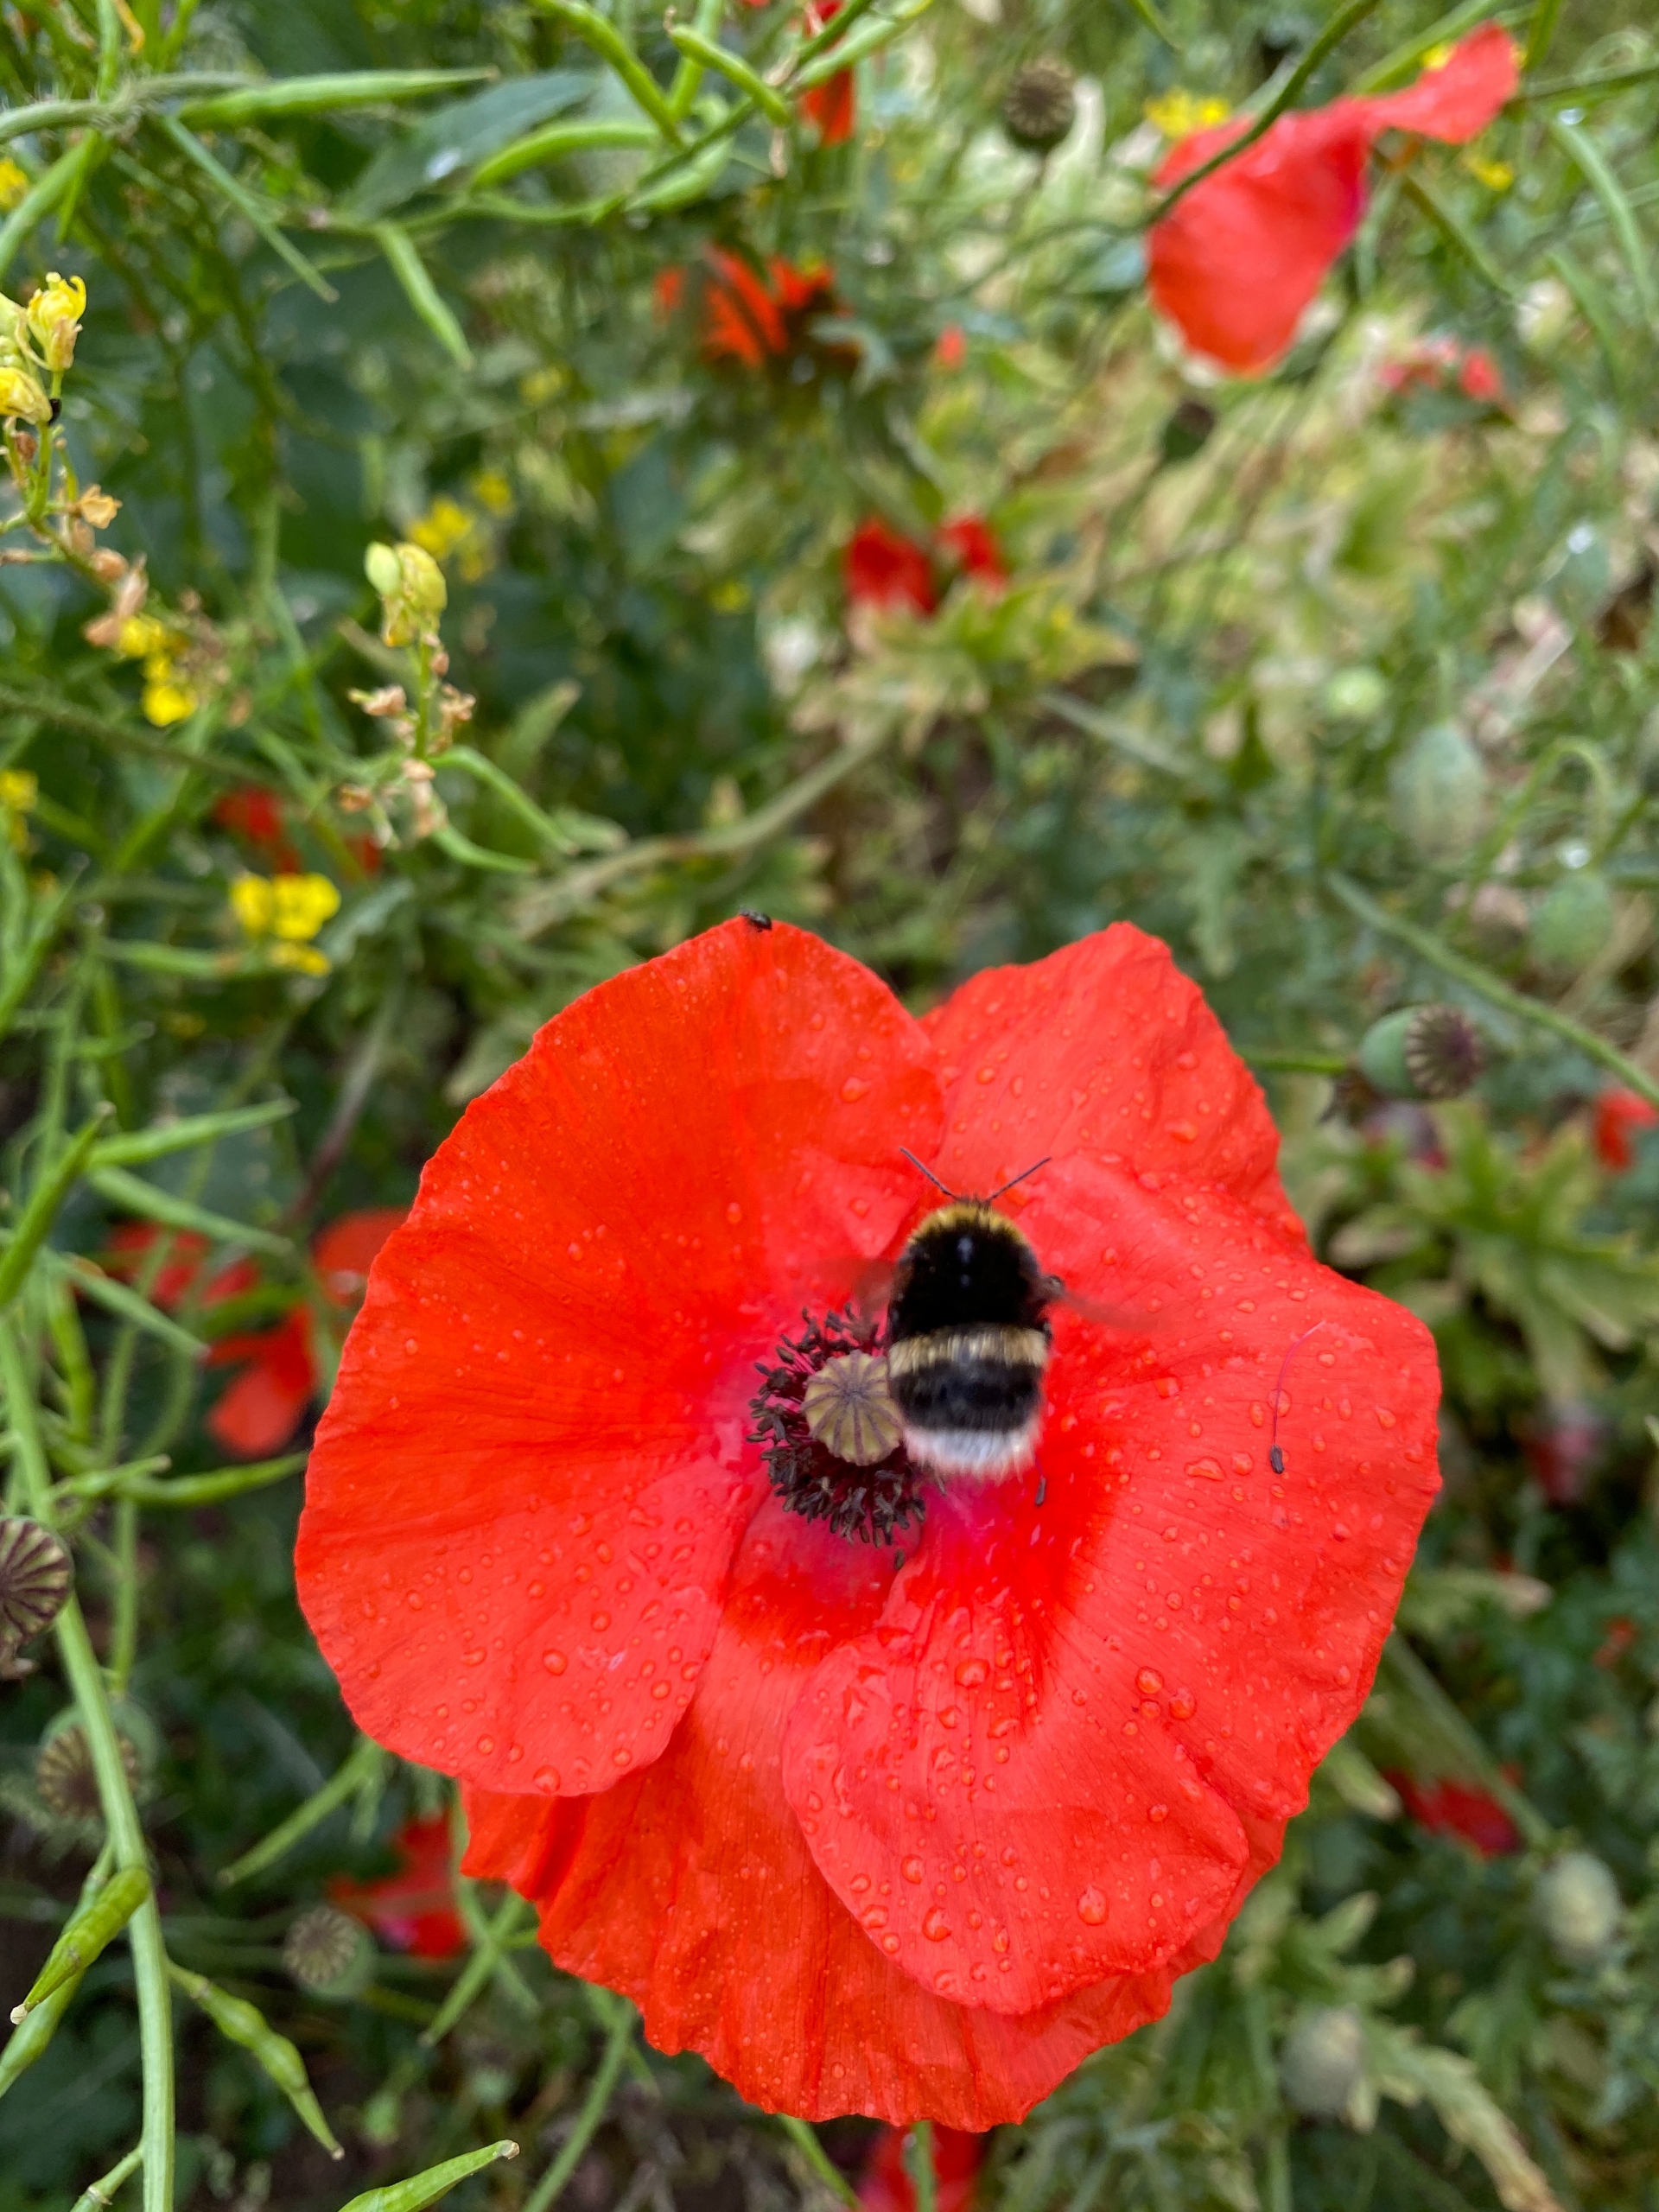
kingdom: Animalia
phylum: Arthropoda
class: Insecta
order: Hymenoptera
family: Apidae
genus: Bombus
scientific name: Bombus
